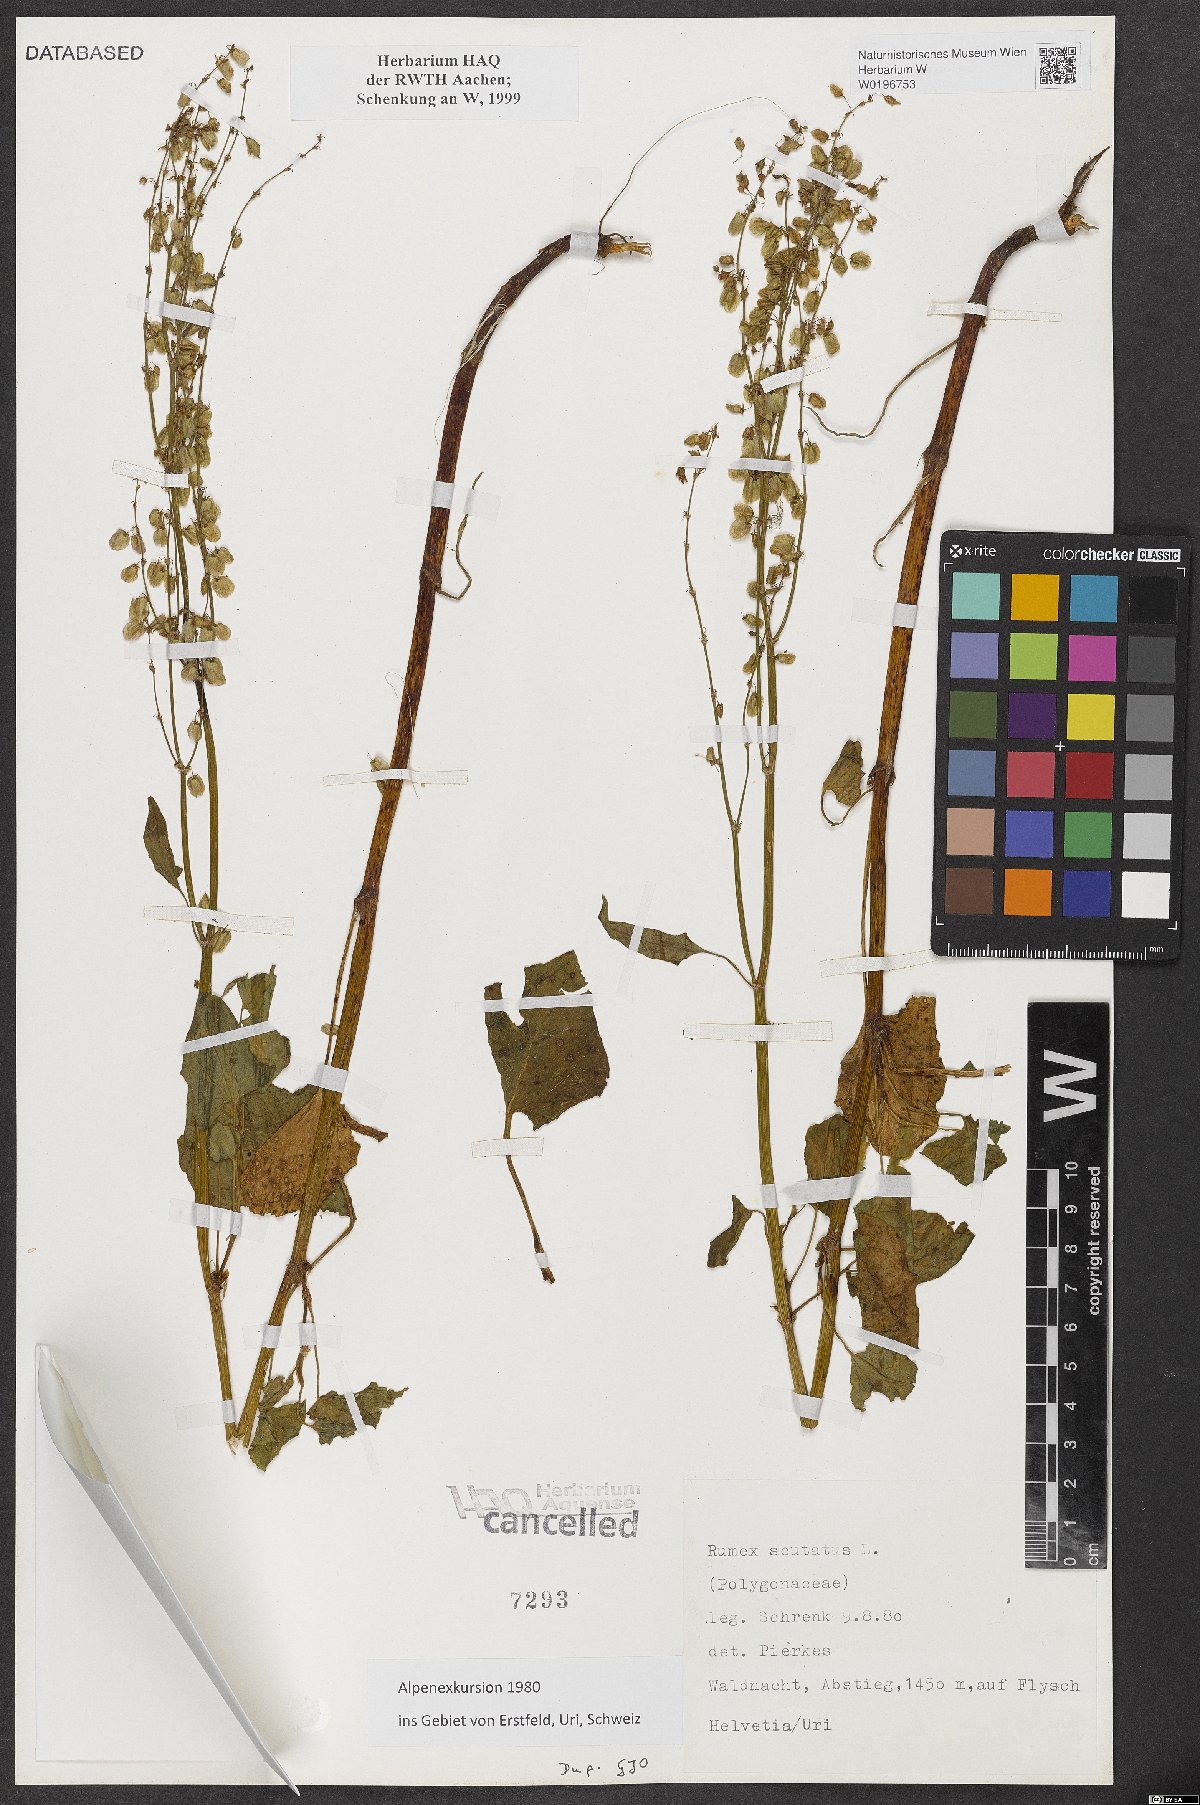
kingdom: Plantae
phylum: Tracheophyta
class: Magnoliopsida
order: Caryophyllales
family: Polygonaceae
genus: Rumex
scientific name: Rumex scutatus
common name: French sorrel
